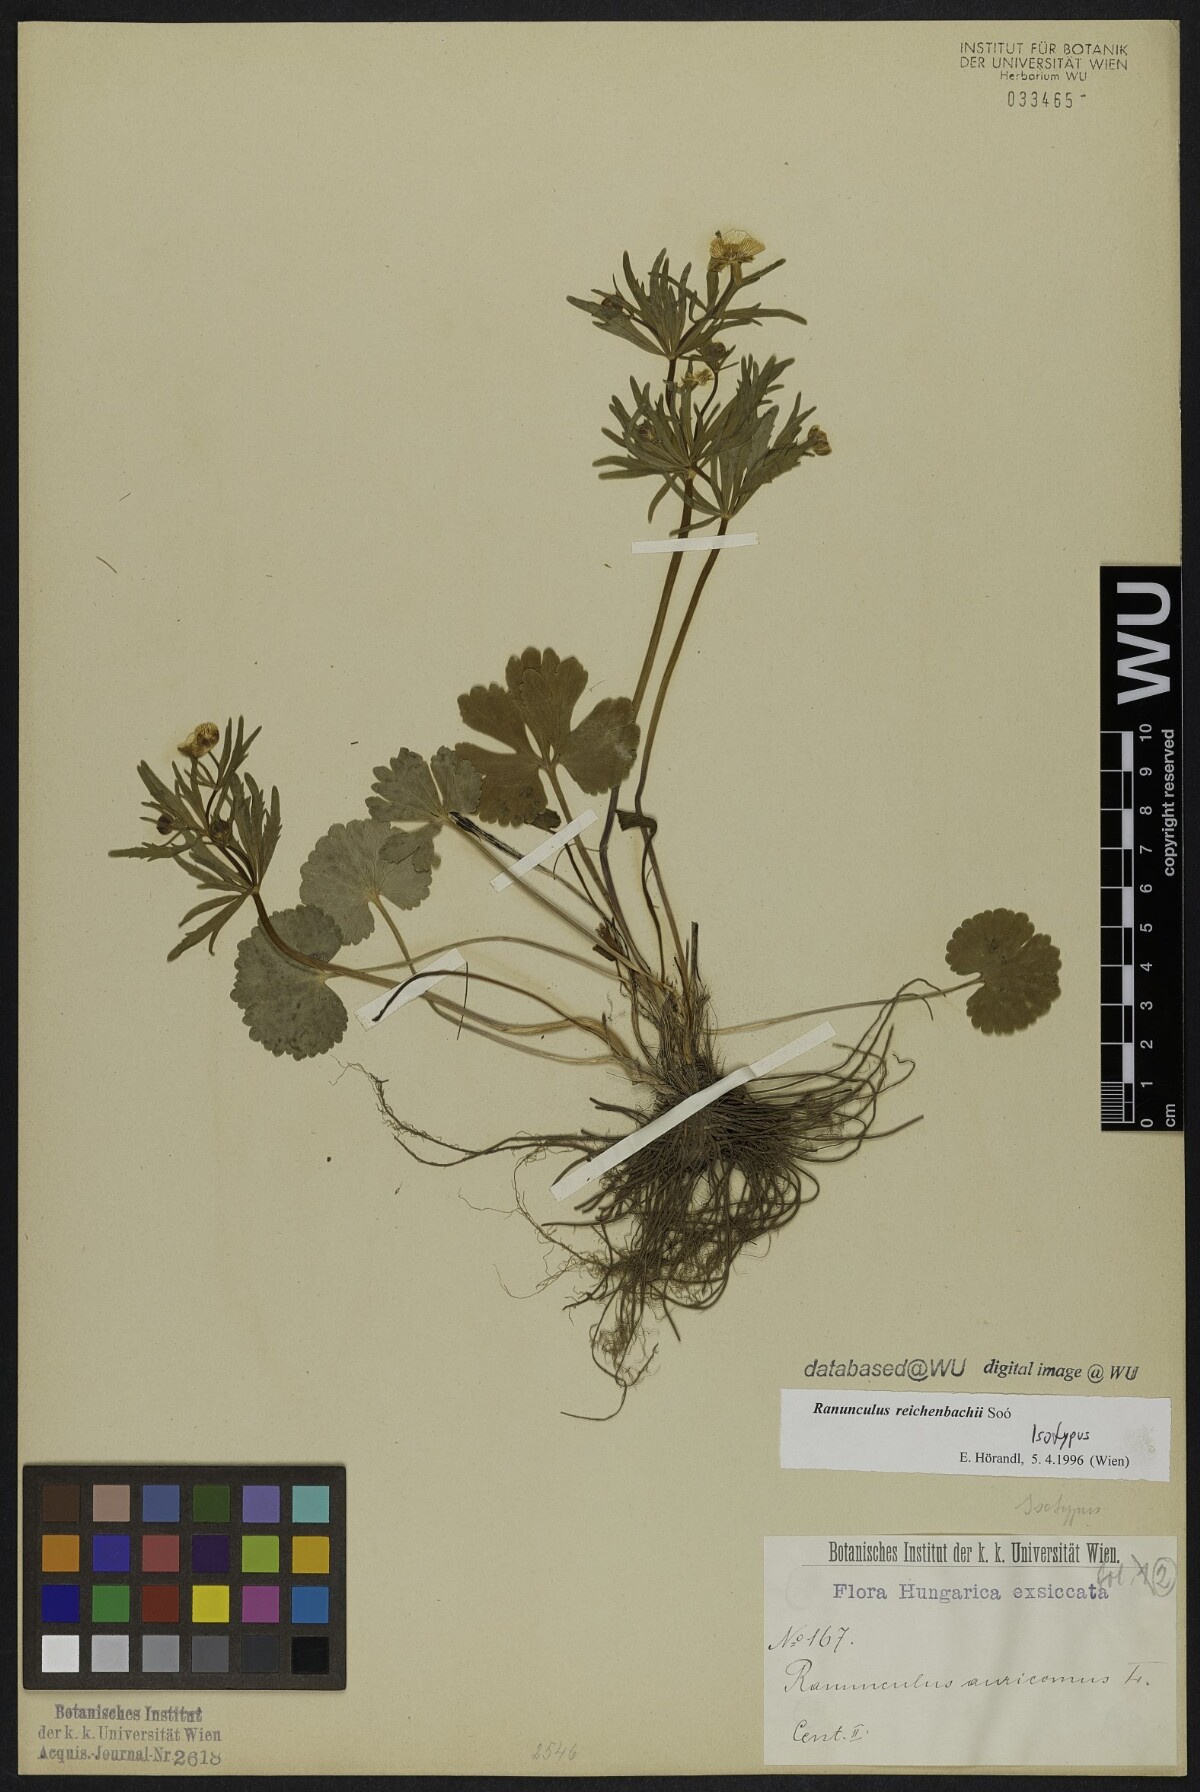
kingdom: Plantae
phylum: Tracheophyta
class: Magnoliopsida
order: Ranunculales
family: Ranunculaceae
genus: Ranunculus
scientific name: Ranunculus reichenbachii
